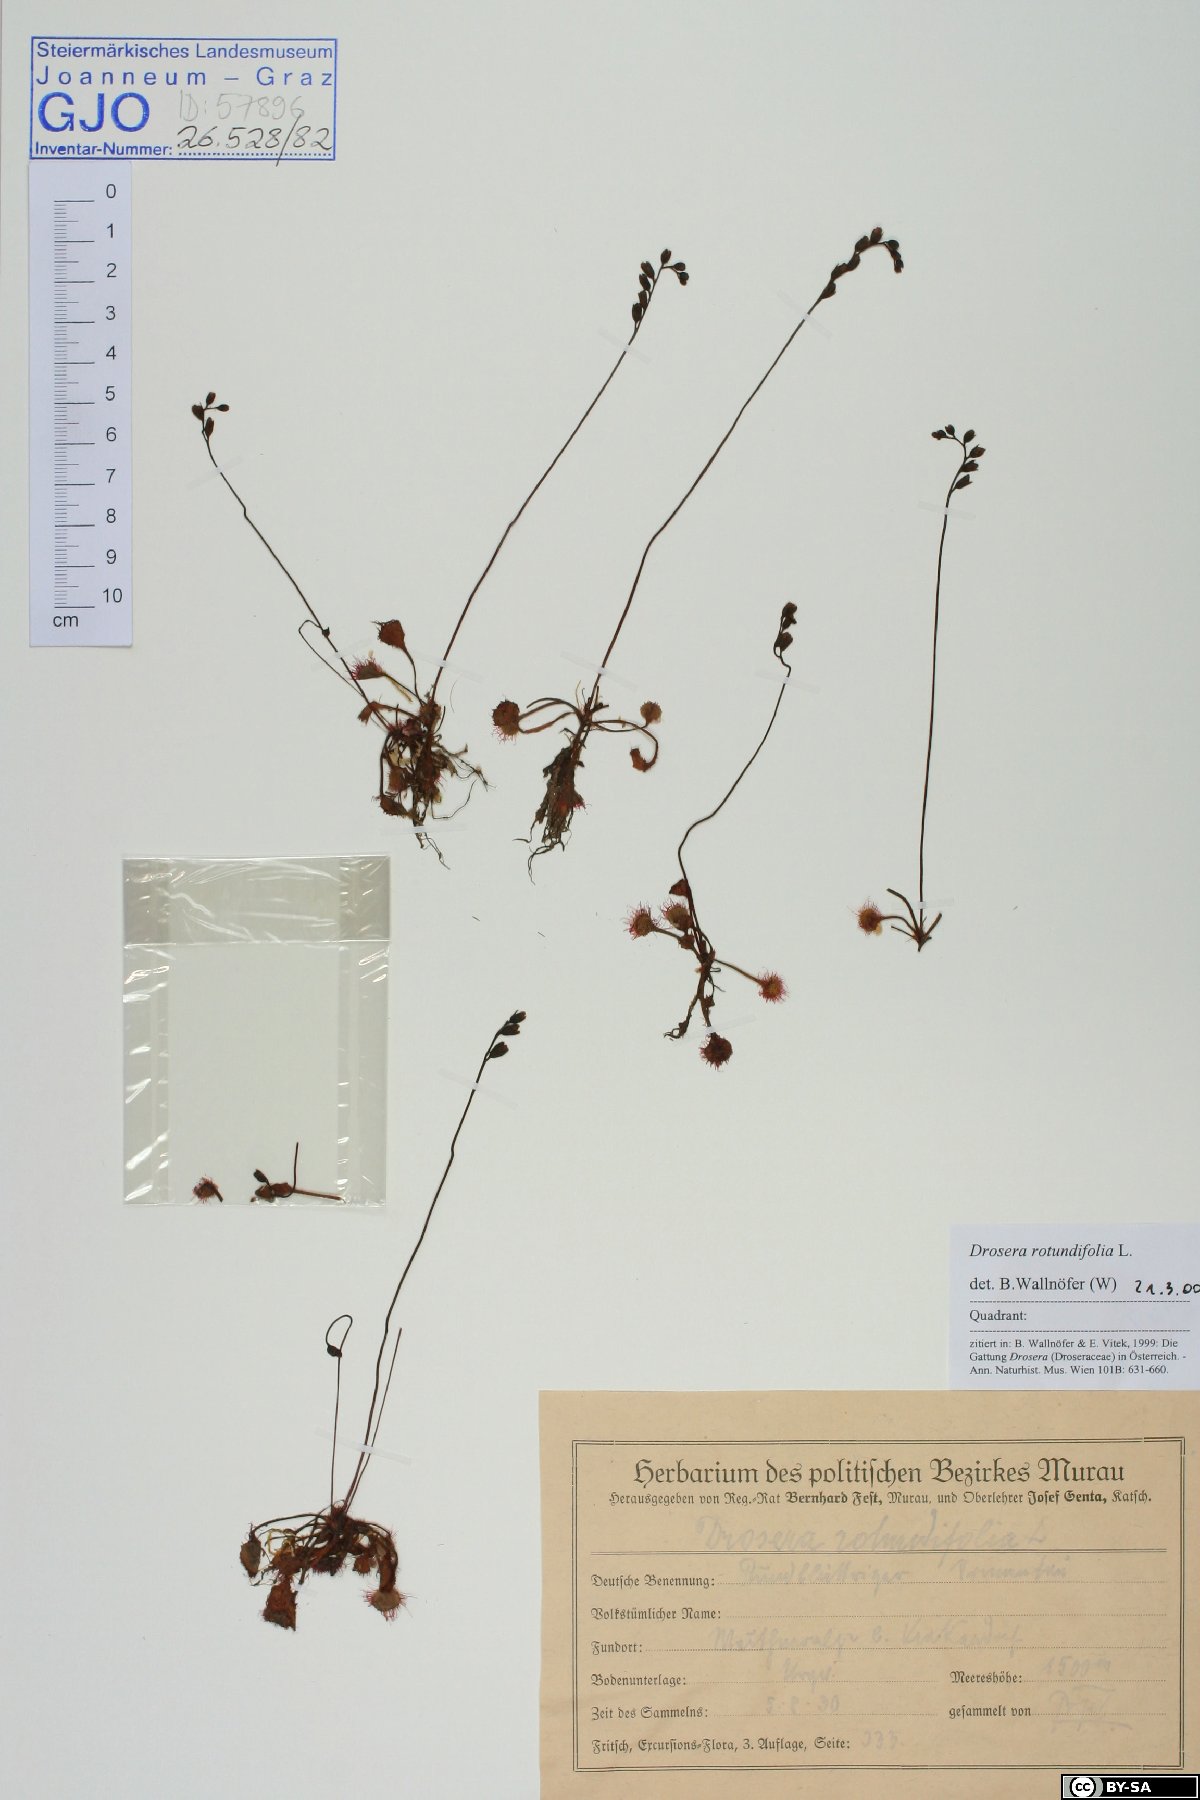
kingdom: Plantae
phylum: Tracheophyta
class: Magnoliopsida
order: Caryophyllales
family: Droseraceae
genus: Drosera
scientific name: Drosera rotundifolia
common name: Round-leaved sundew
